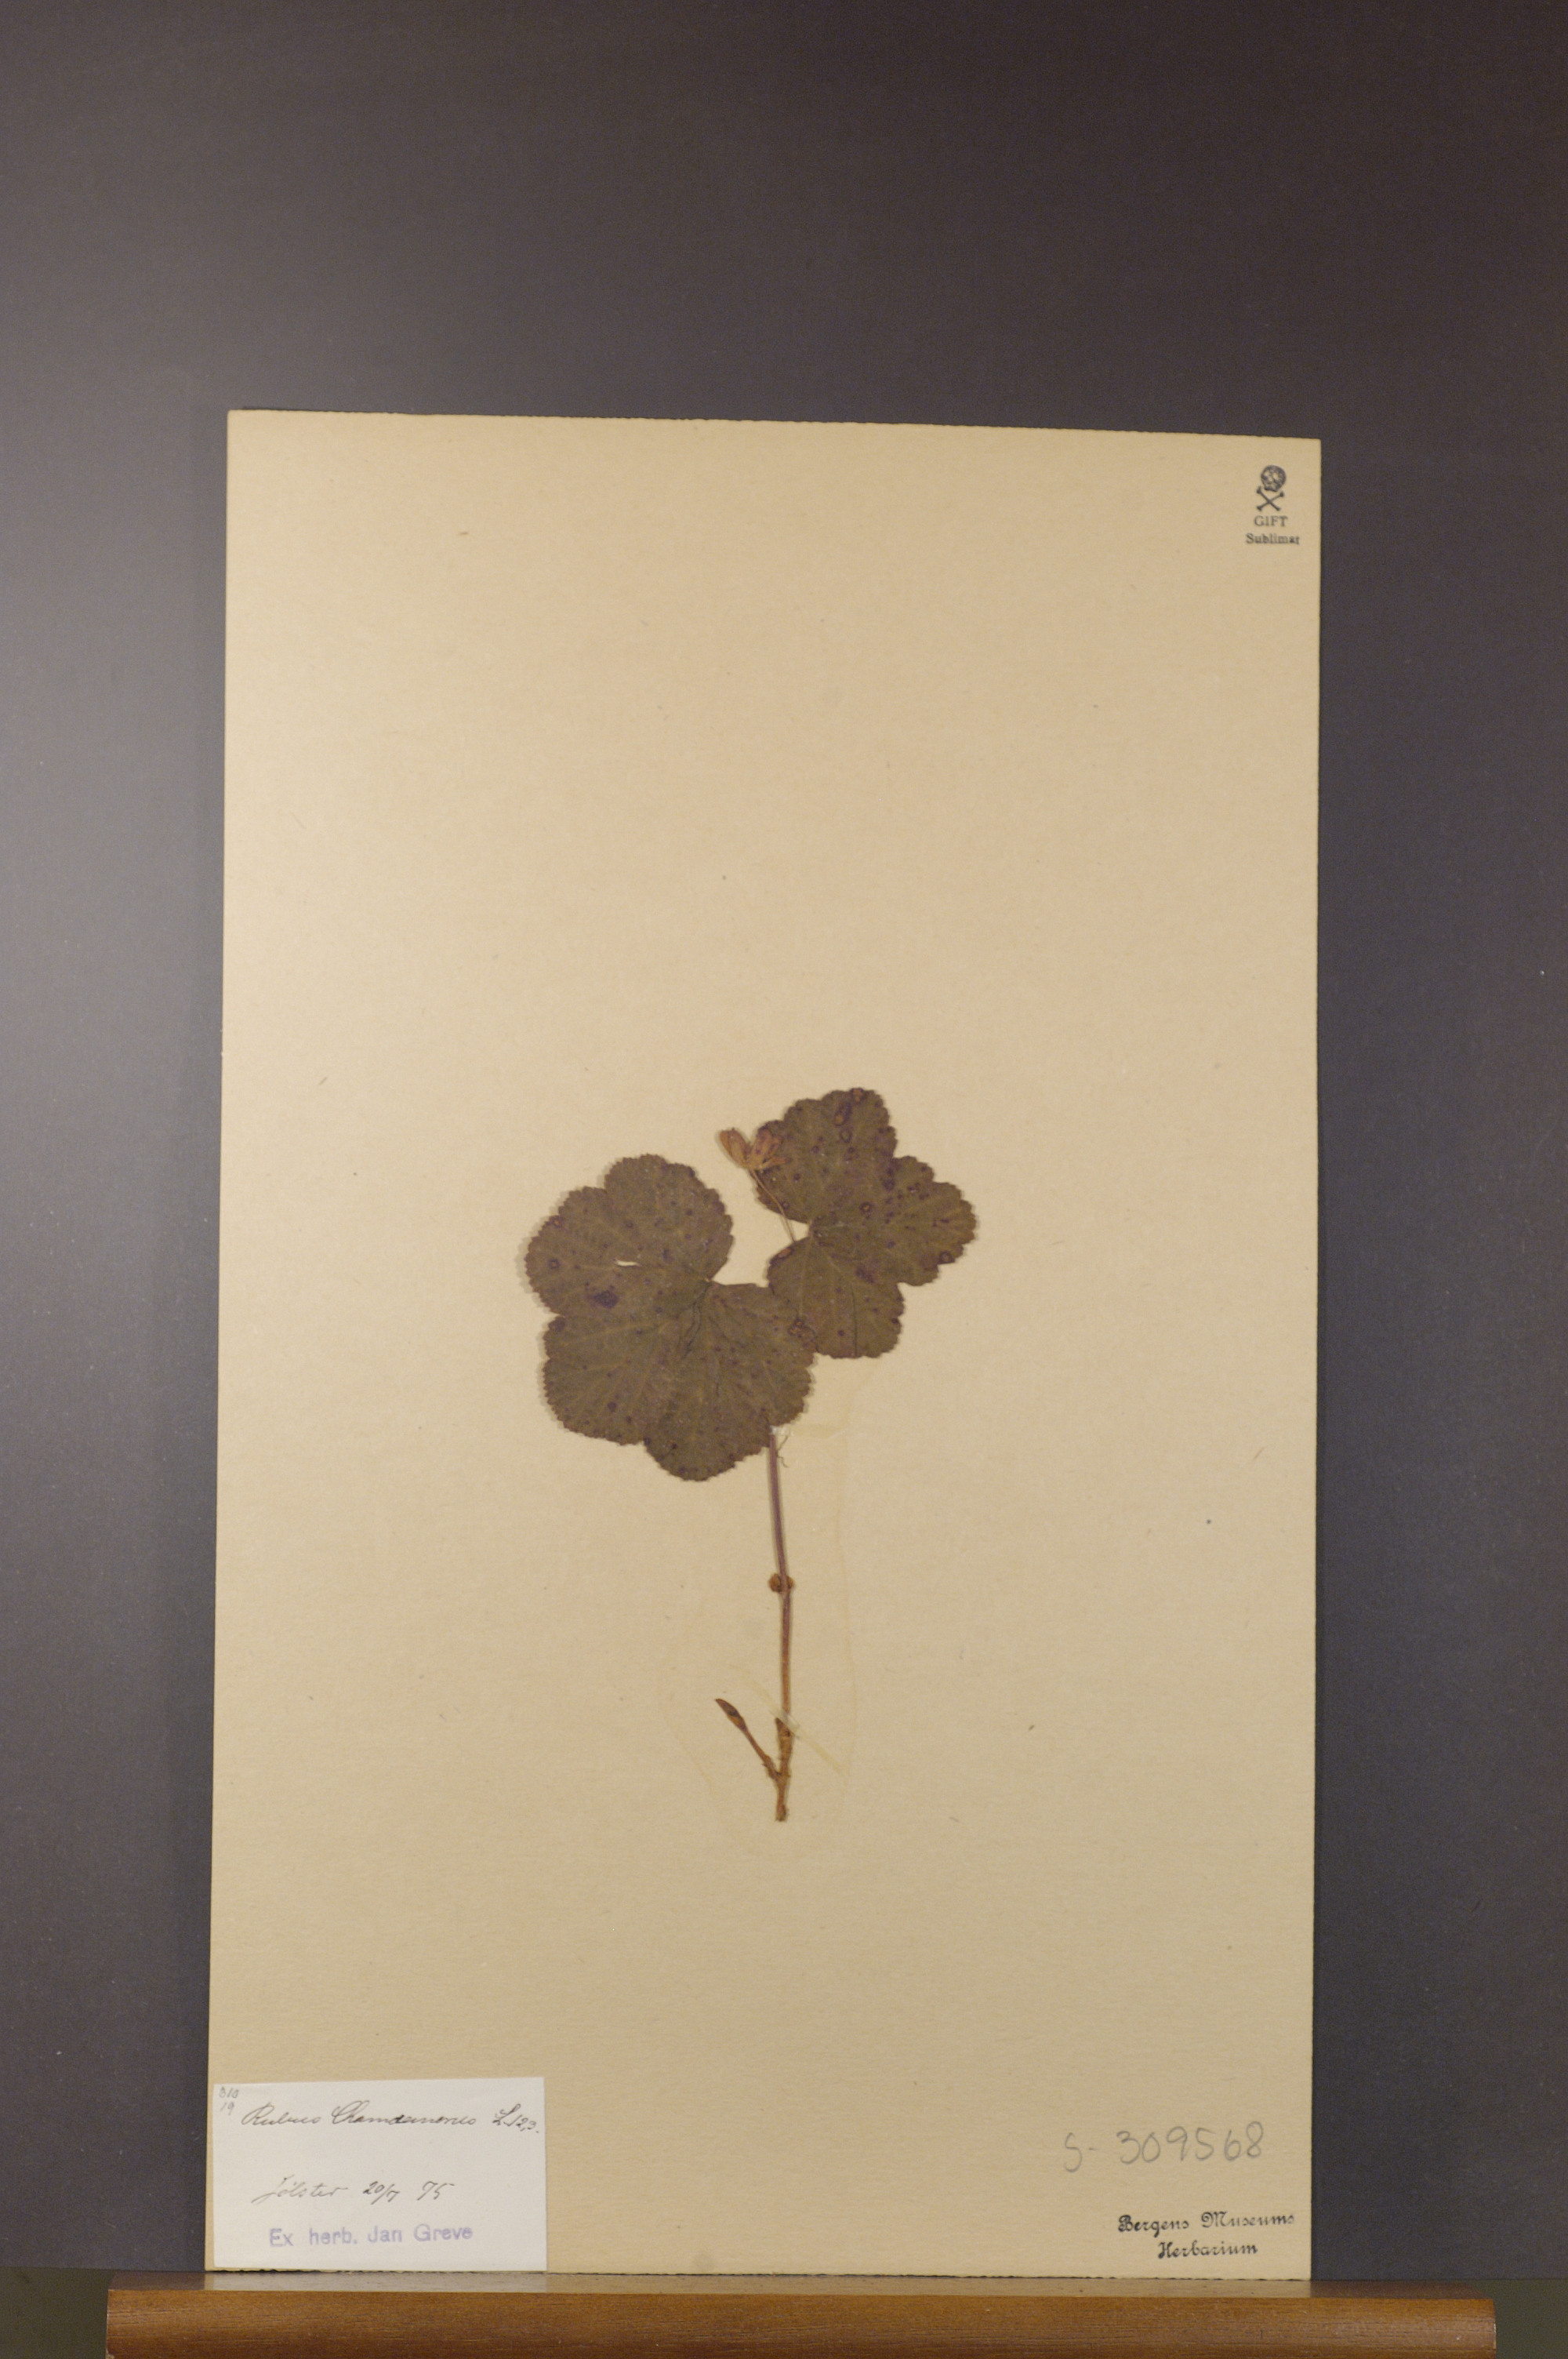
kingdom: Plantae
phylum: Tracheophyta
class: Magnoliopsida
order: Rosales
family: Rosaceae
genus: Rubus
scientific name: Rubus chamaemorus
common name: Cloudberry
